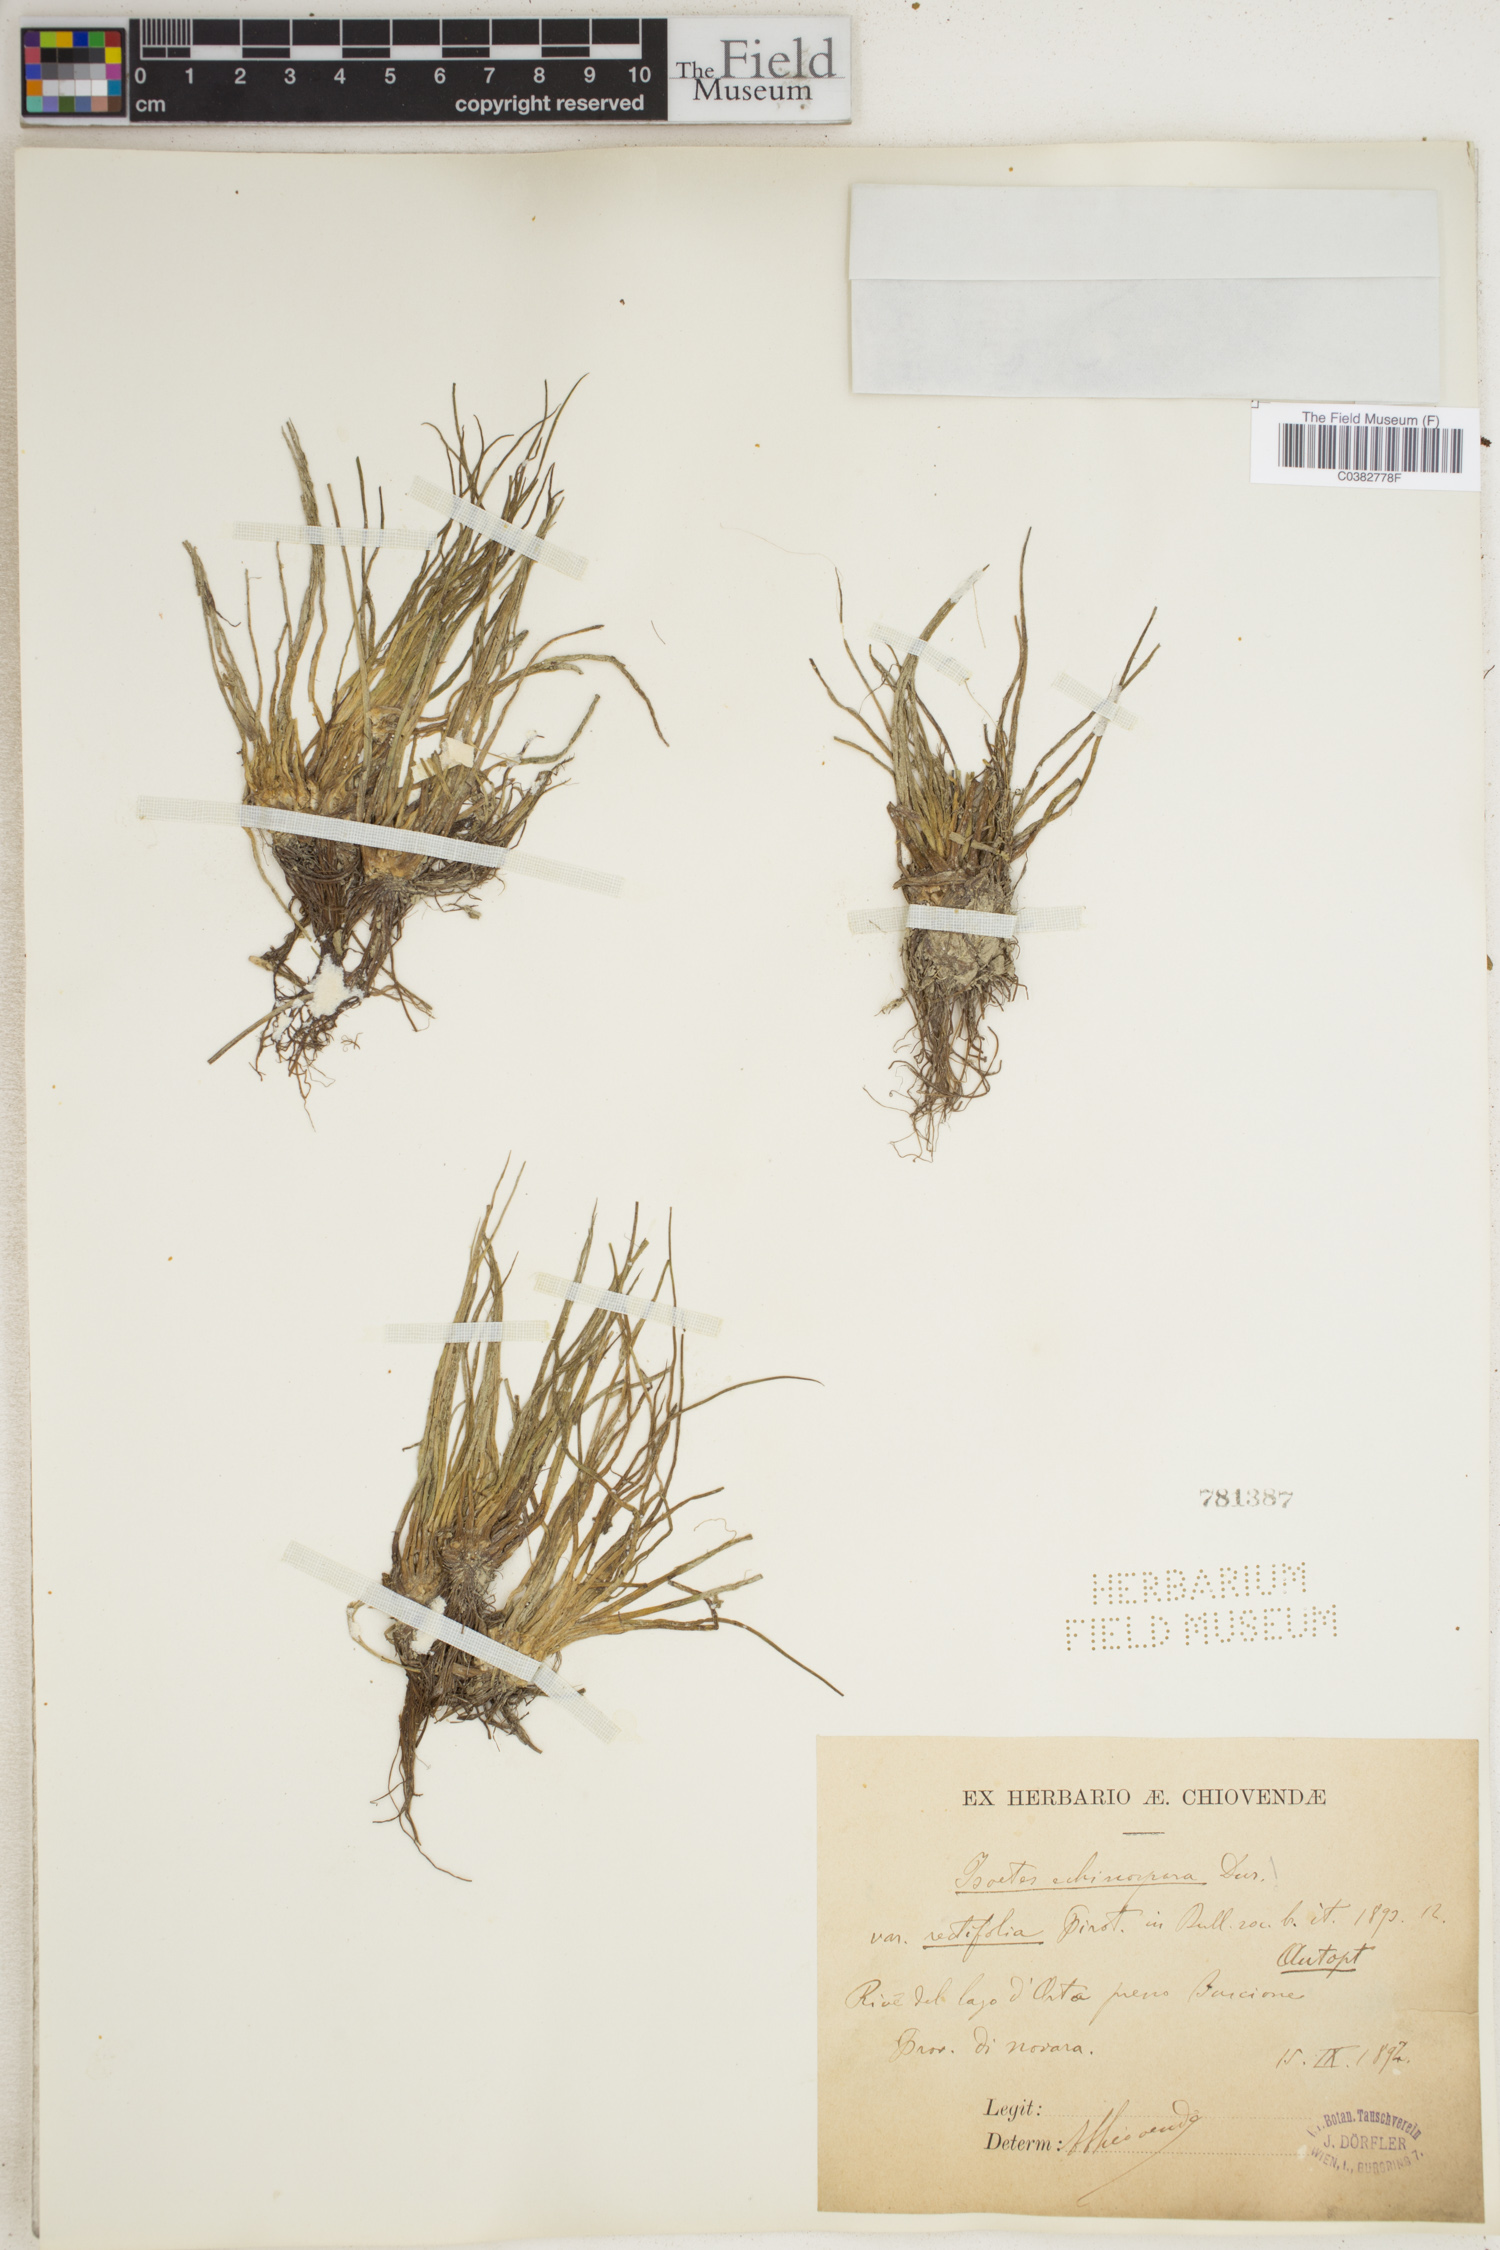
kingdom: Plantae
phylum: Tracheophyta
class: Lycopodiopsida
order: Isoetales
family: Isoetaceae
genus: Isoetes
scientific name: Isoetes echinospora
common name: Spring quillwort
